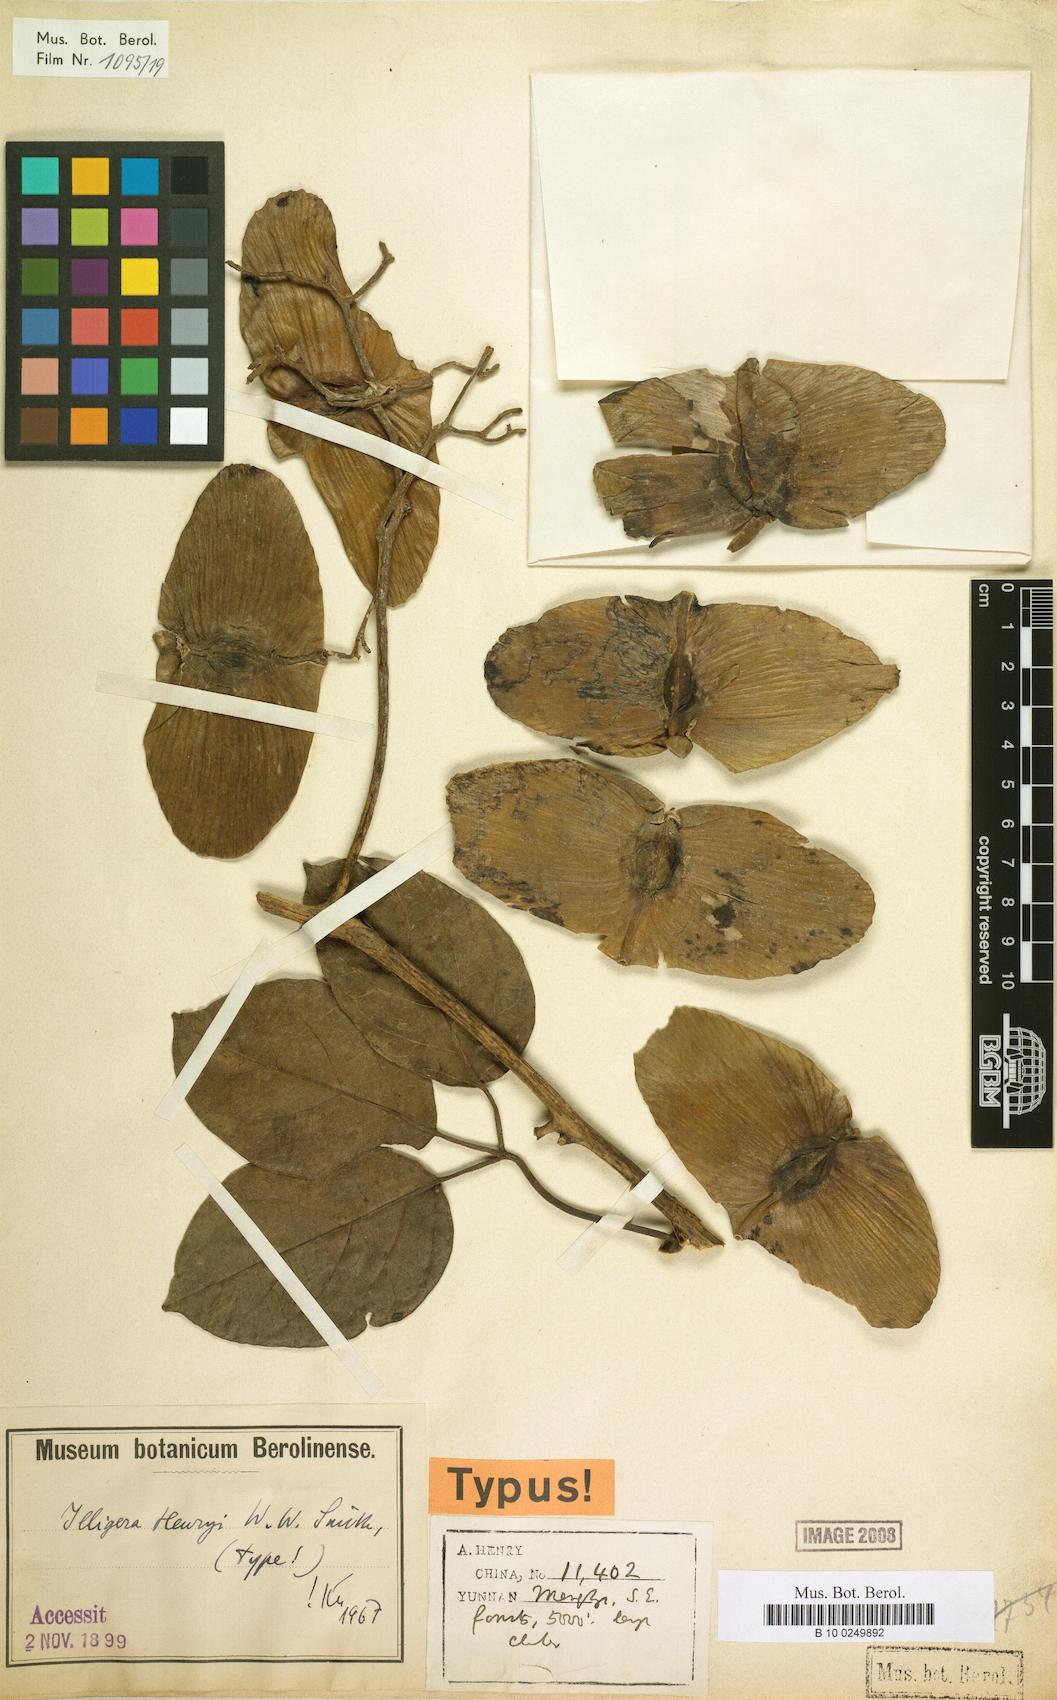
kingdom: Plantae
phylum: Tracheophyta
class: Magnoliopsida
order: Laurales
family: Hernandiaceae
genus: Illigera
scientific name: Illigera henryi
